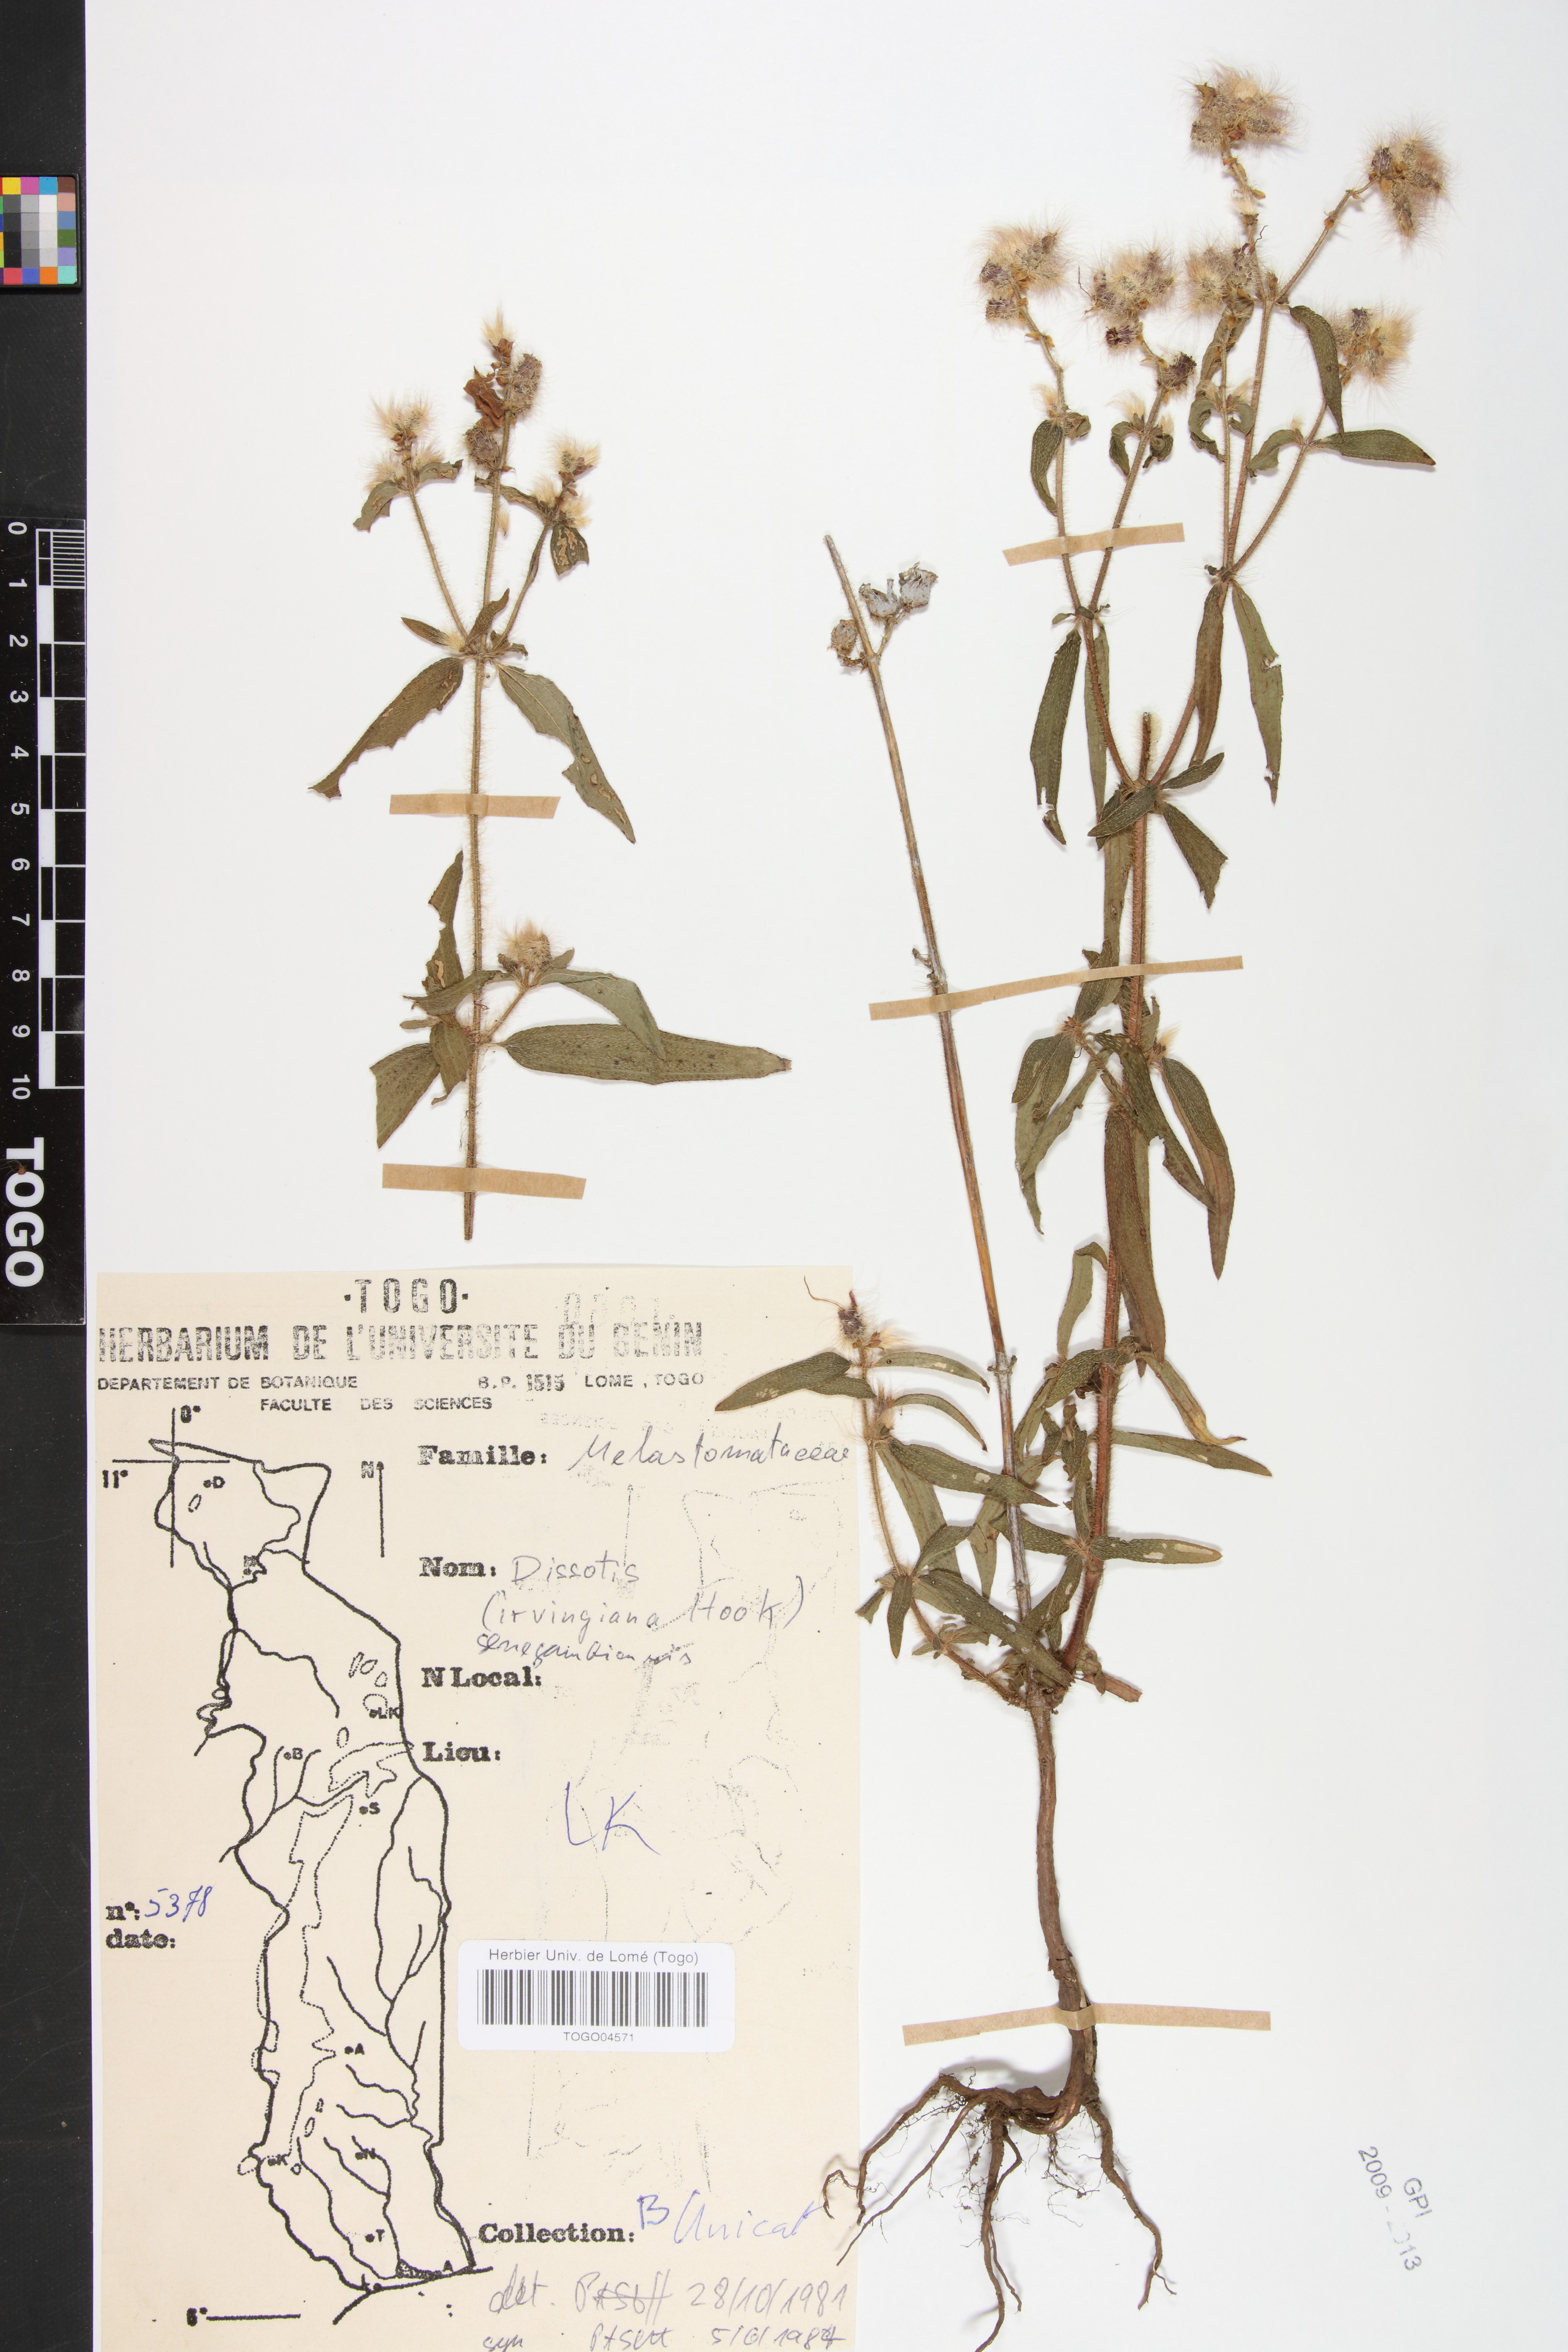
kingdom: Plantae
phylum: Tracheophyta
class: Magnoliopsida
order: Myrtales
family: Melastomataceae
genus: Antherotoma
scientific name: Antherotoma irvingiana
